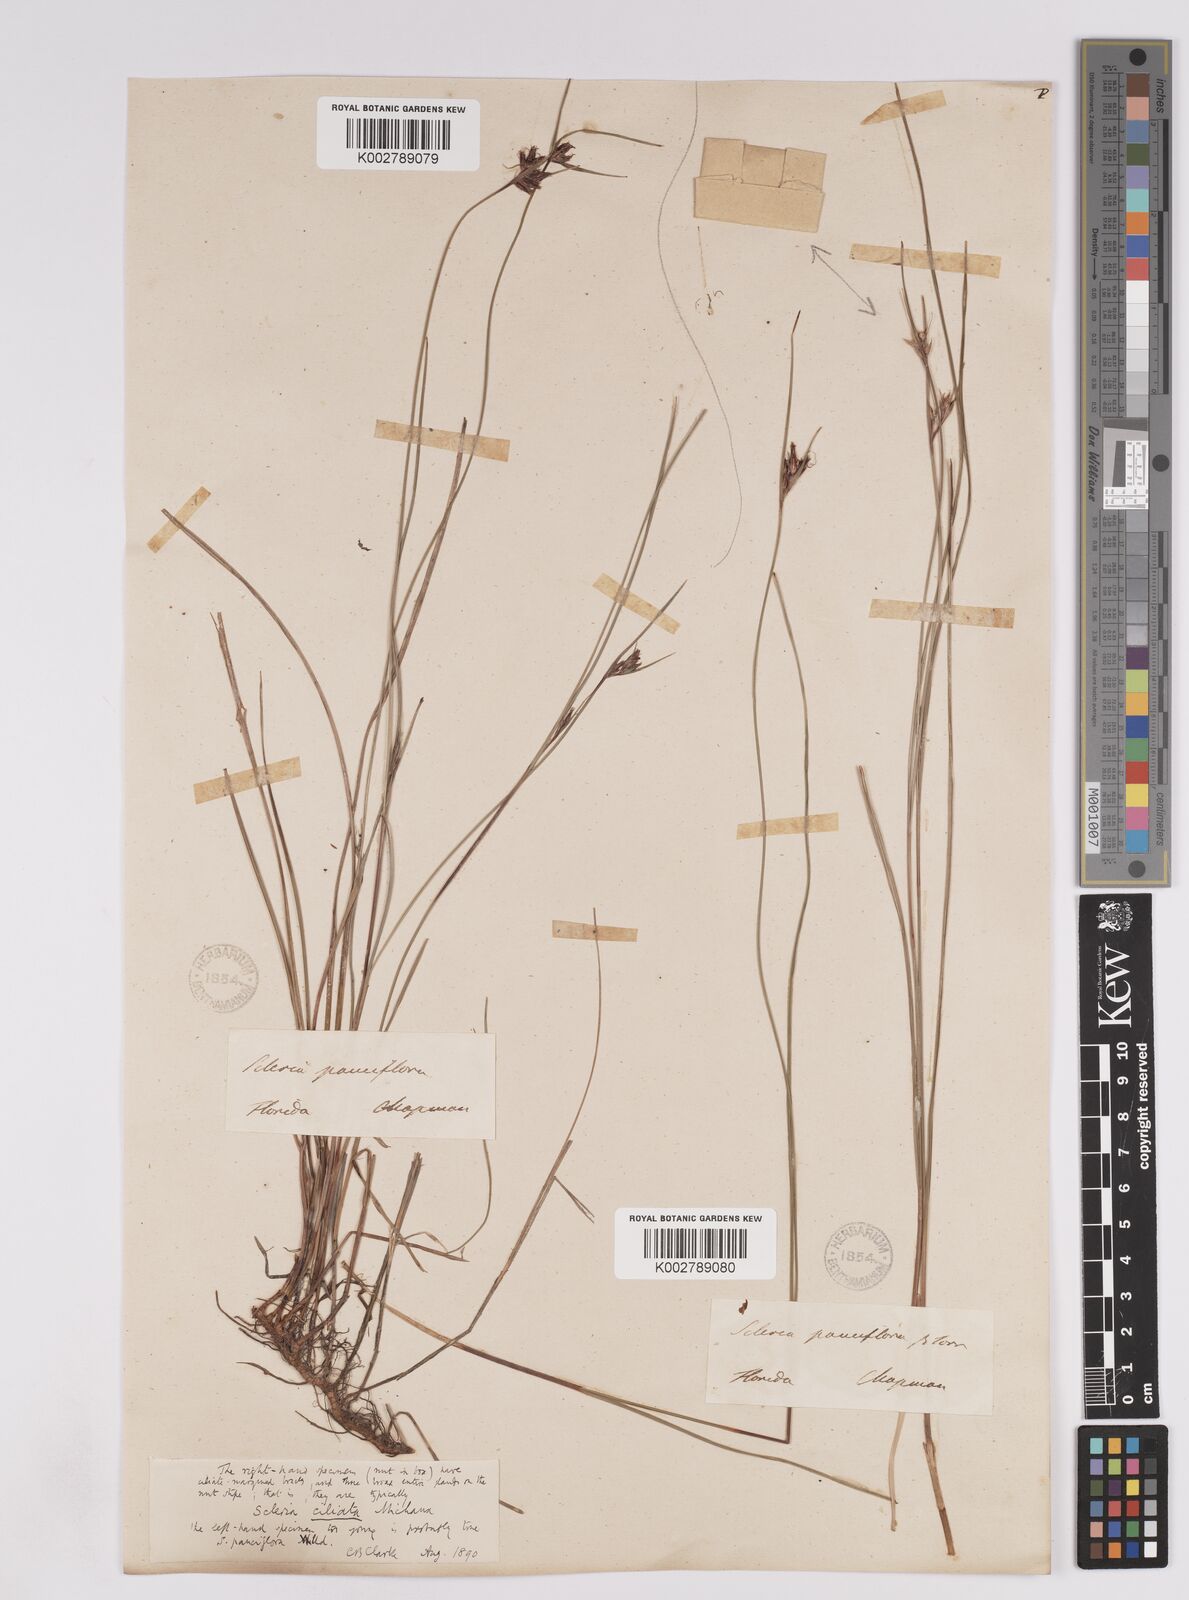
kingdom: Plantae
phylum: Tracheophyta
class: Liliopsida
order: Poales
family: Cyperaceae
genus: Scleria
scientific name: Scleria ciliata
